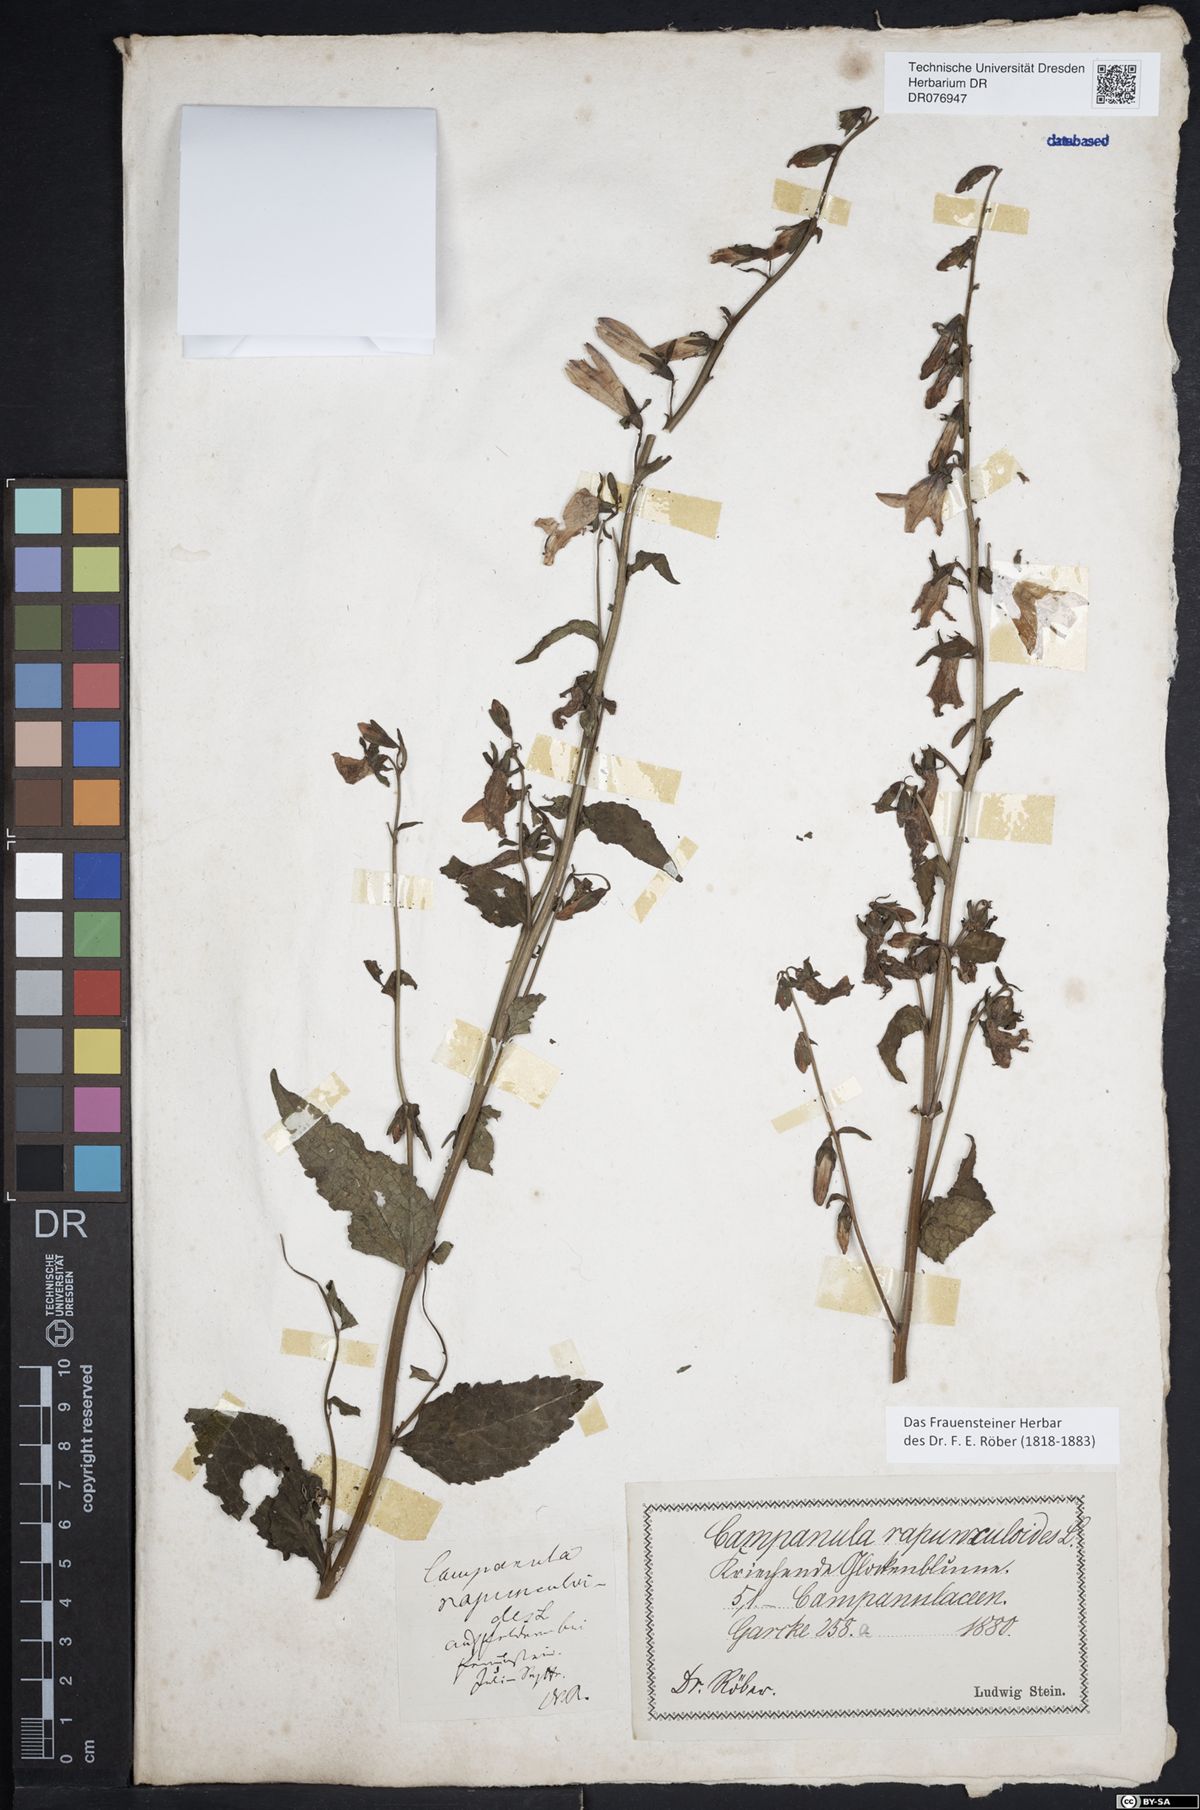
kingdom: Plantae
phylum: Tracheophyta
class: Magnoliopsida
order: Asterales
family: Campanulaceae
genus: Campanula
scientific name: Campanula rapunculoides
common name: Creeping bellflower
